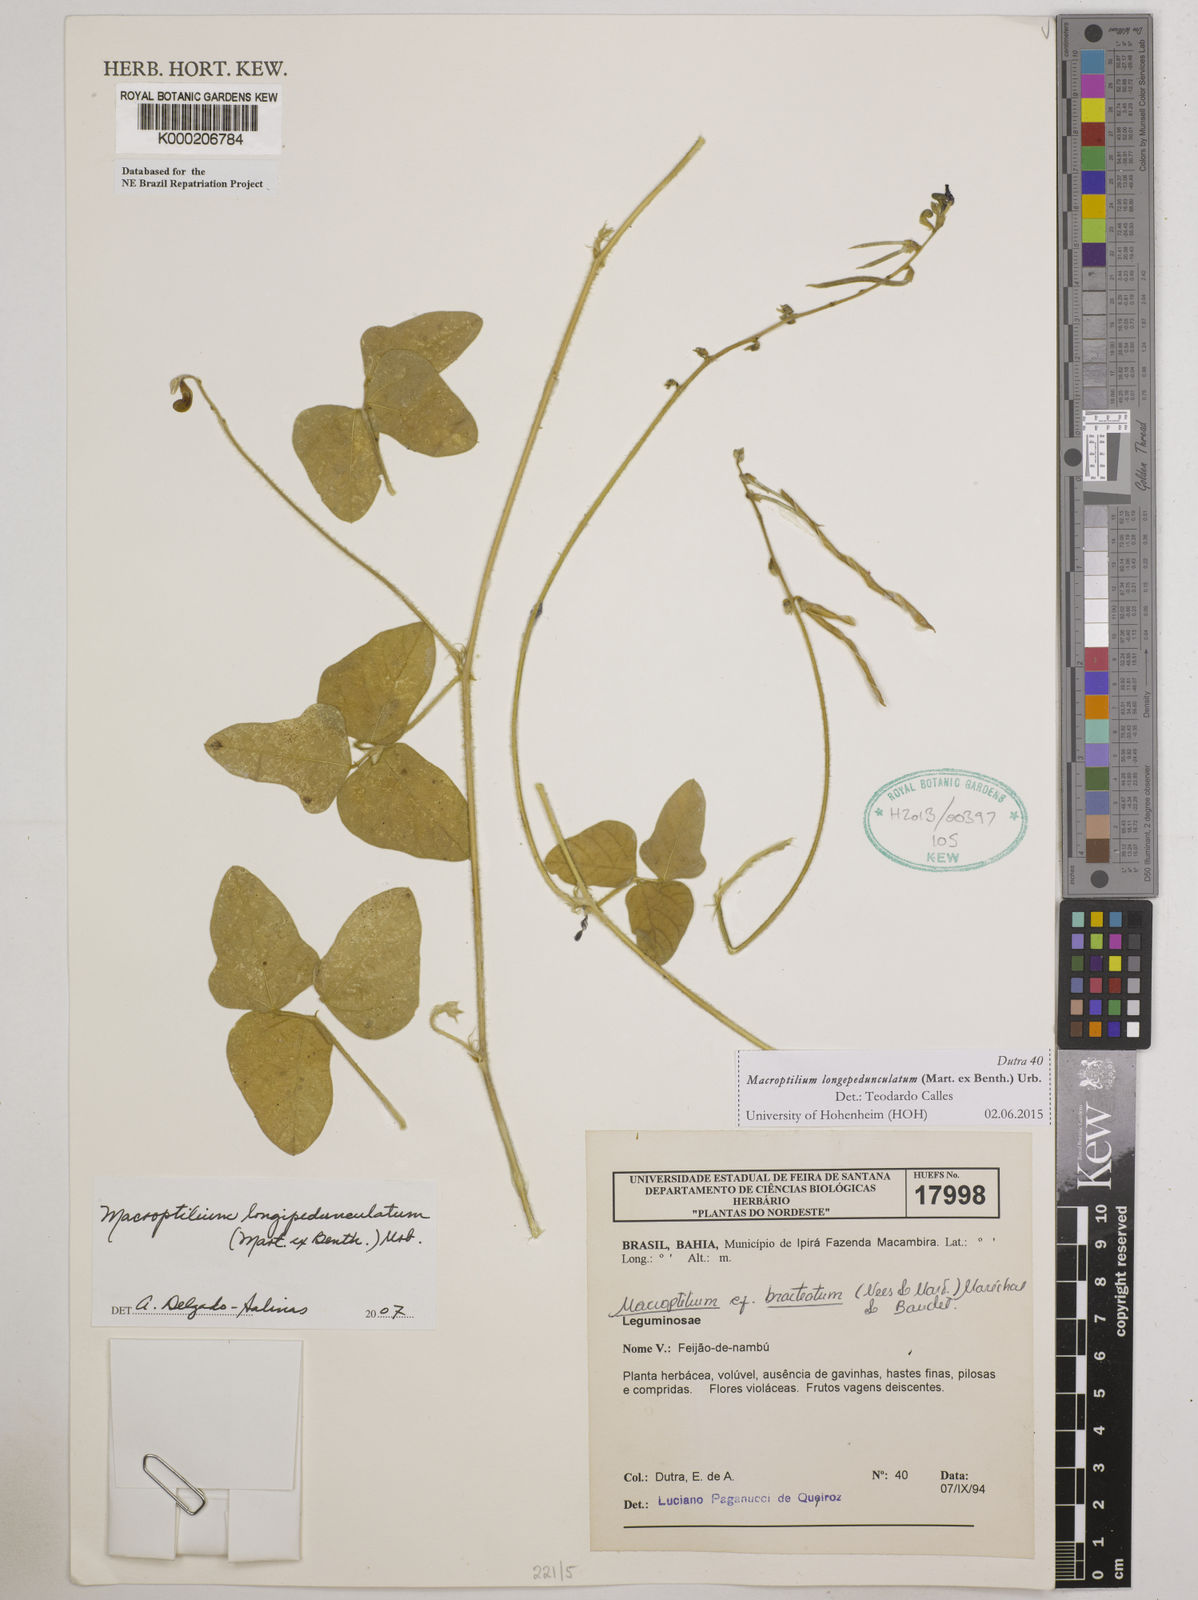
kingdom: Plantae
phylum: Tracheophyta
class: Magnoliopsida
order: Fabales
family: Fabaceae
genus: Macroptilium
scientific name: Macroptilium
